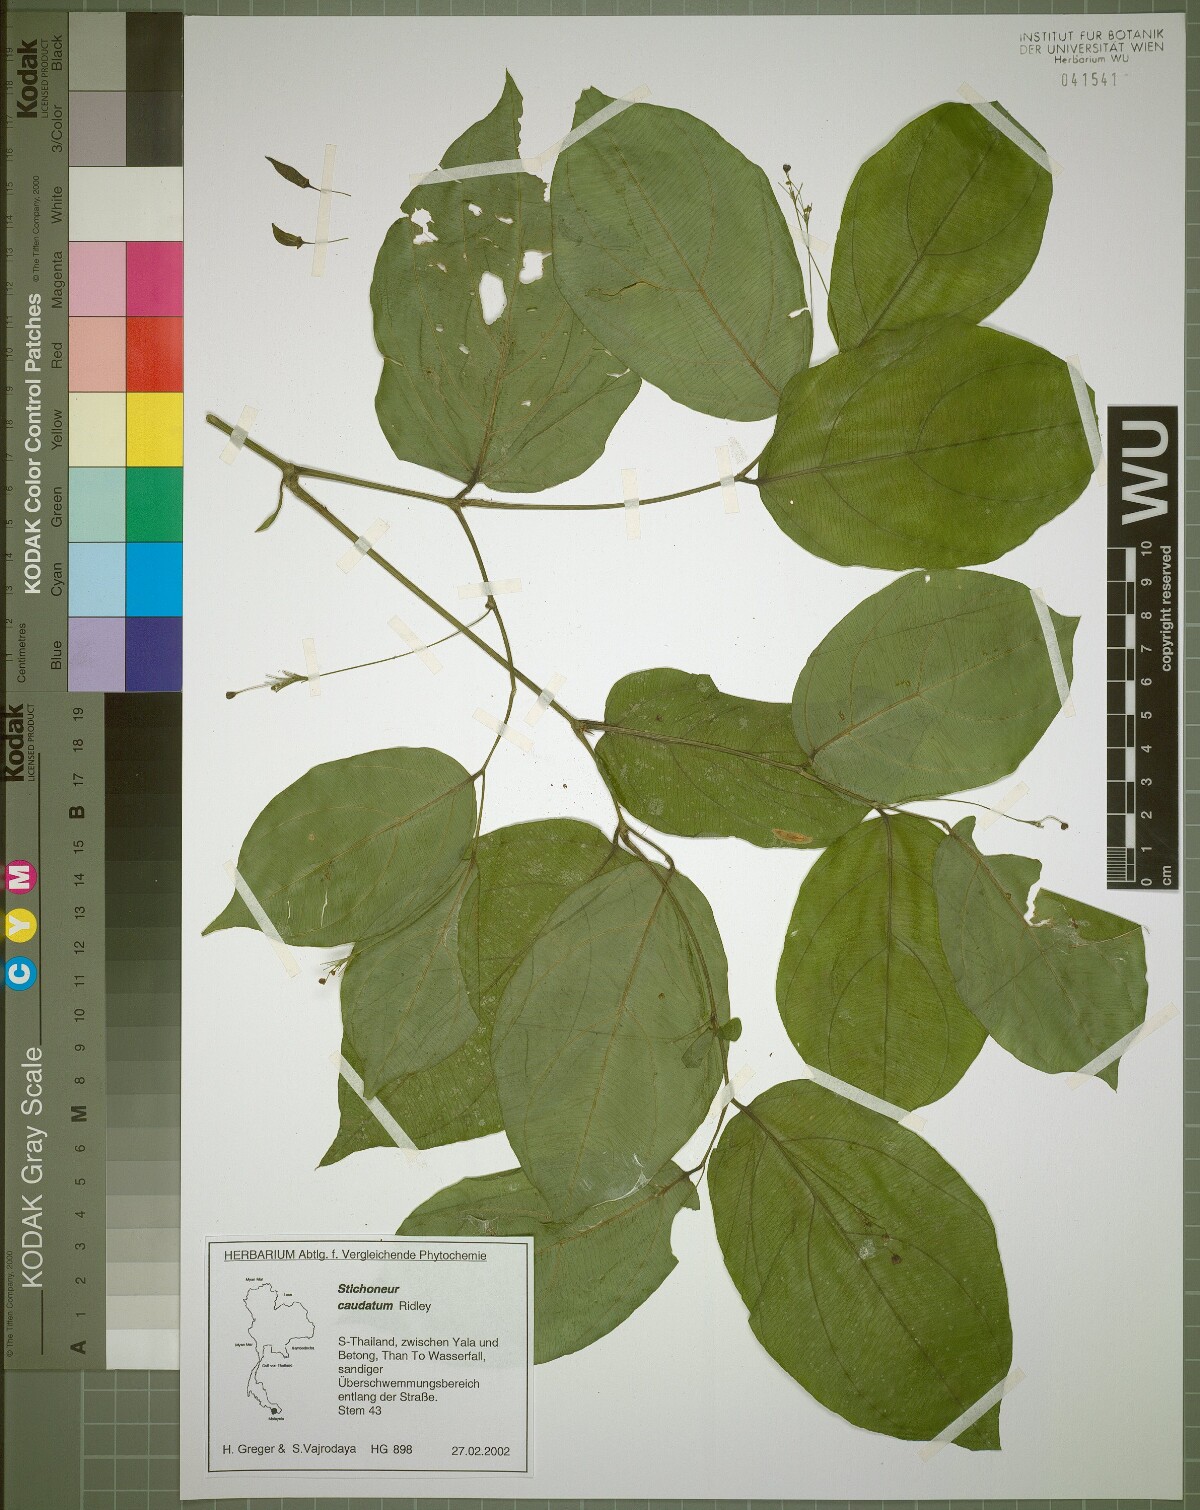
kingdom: Plantae
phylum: Tracheophyta
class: Liliopsida
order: Pandanales
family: Stemonaceae
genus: Stichoneuron
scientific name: Stichoneuron caudatum
